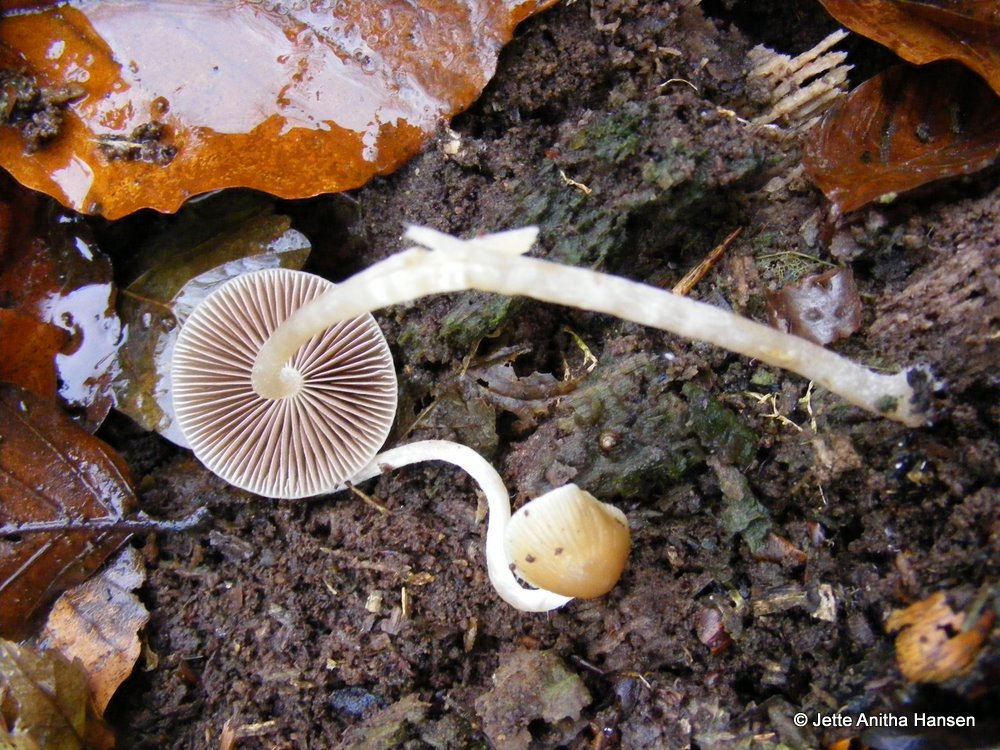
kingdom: Fungi
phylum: Basidiomycota
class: Agaricomycetes
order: Agaricales
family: Psathyrellaceae
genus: Psathyrella
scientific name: Psathyrella obtusata
